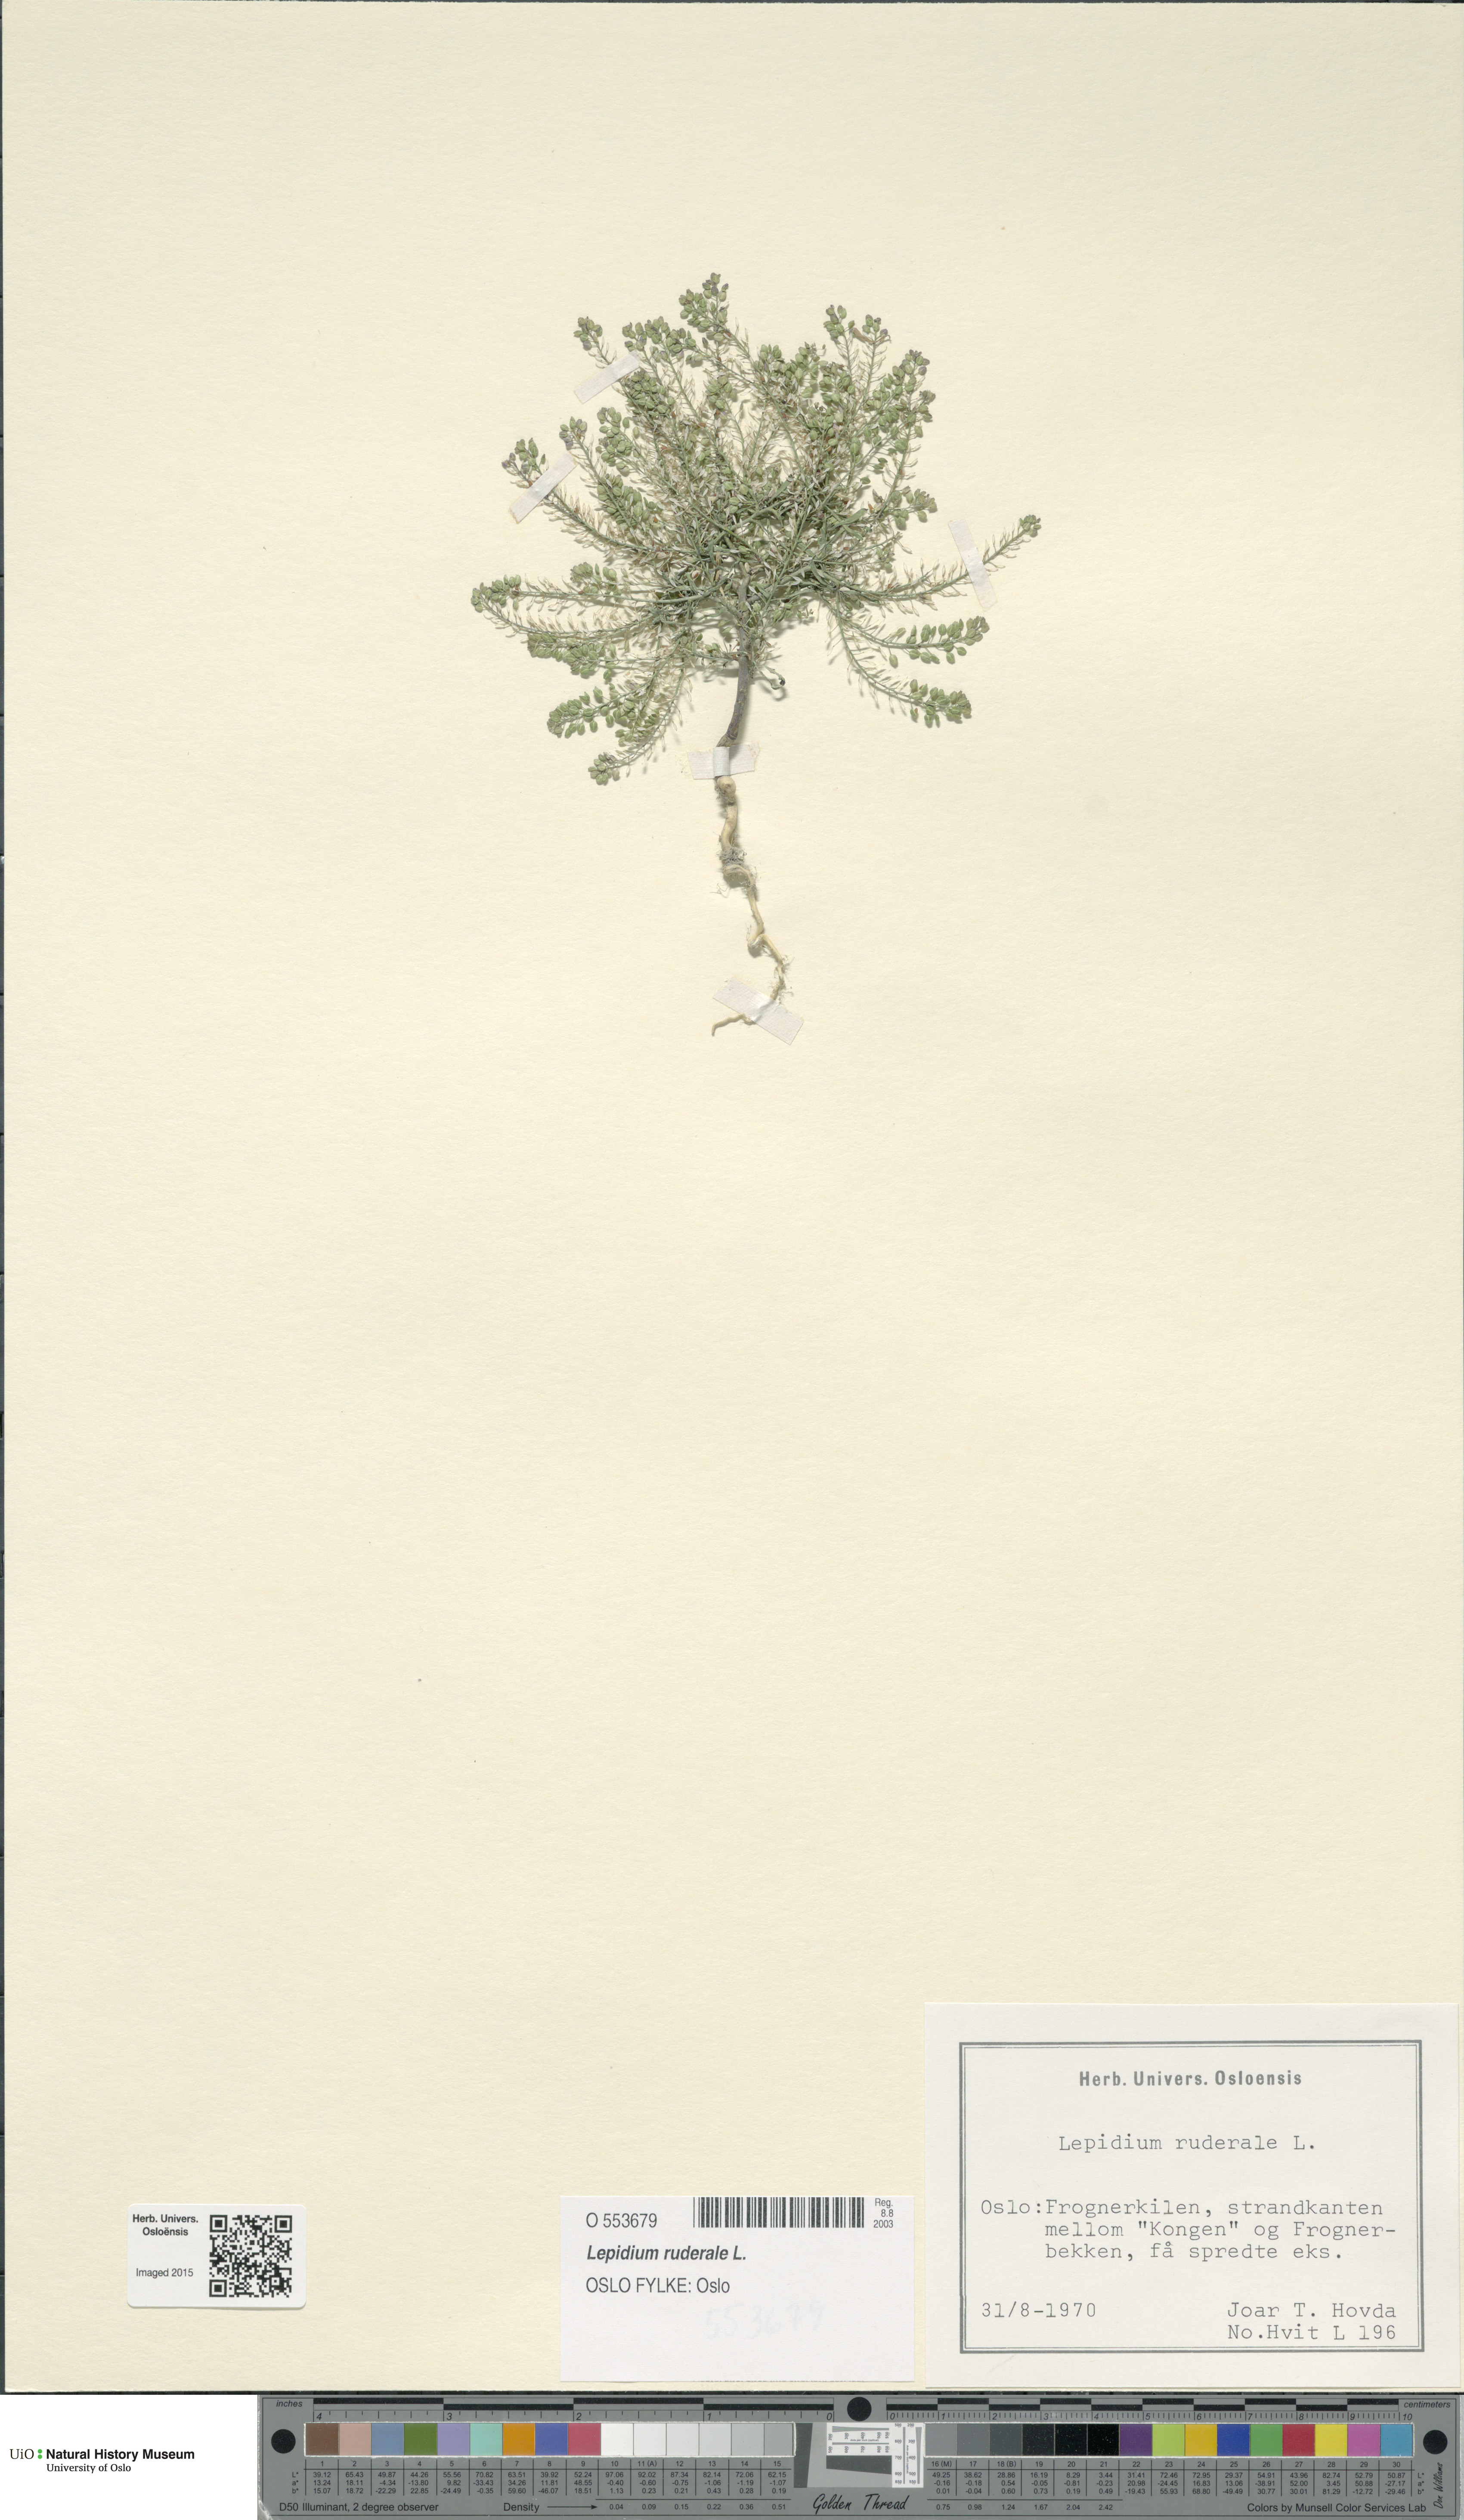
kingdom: Plantae
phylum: Tracheophyta
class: Magnoliopsida
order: Brassicales
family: Brassicaceae
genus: Lepidium
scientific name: Lepidium ruderale
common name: Narrow-leaved pepperwort
